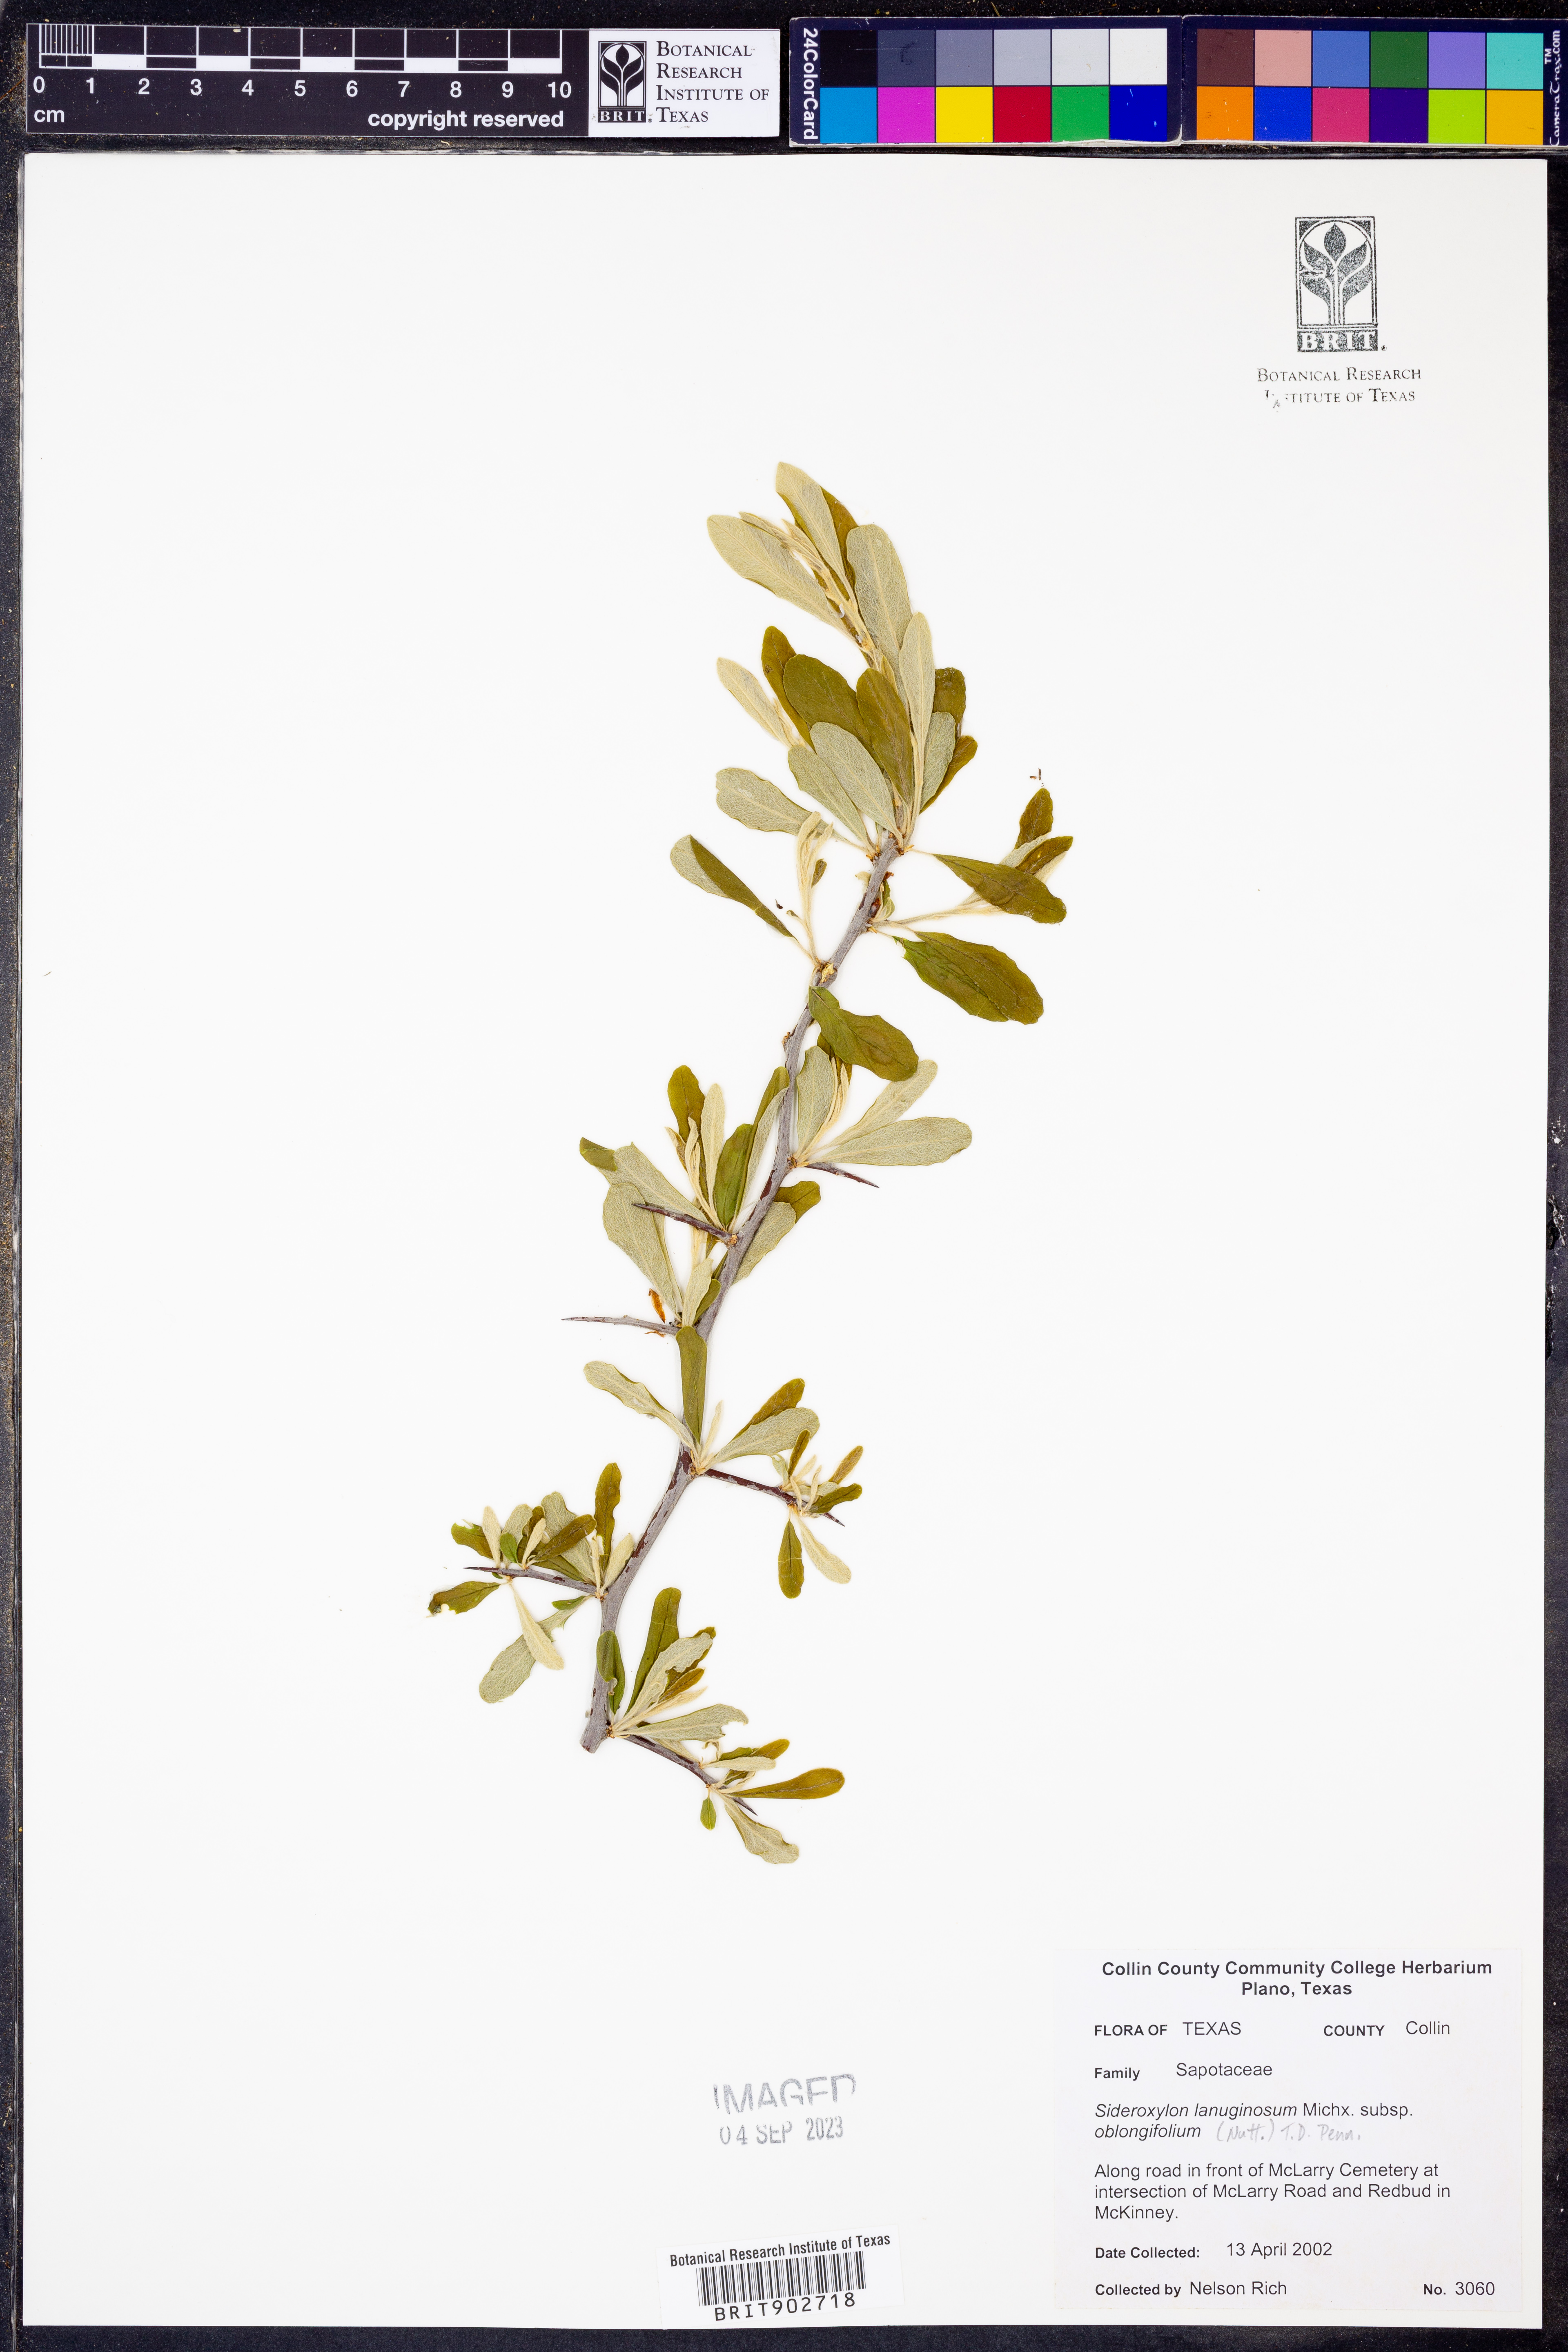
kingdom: Plantae
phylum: Tracheophyta
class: Magnoliopsida
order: Ericales
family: Sapotaceae
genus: Sideroxylon
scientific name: Sideroxylon lanuginosum
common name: Chittamwood
